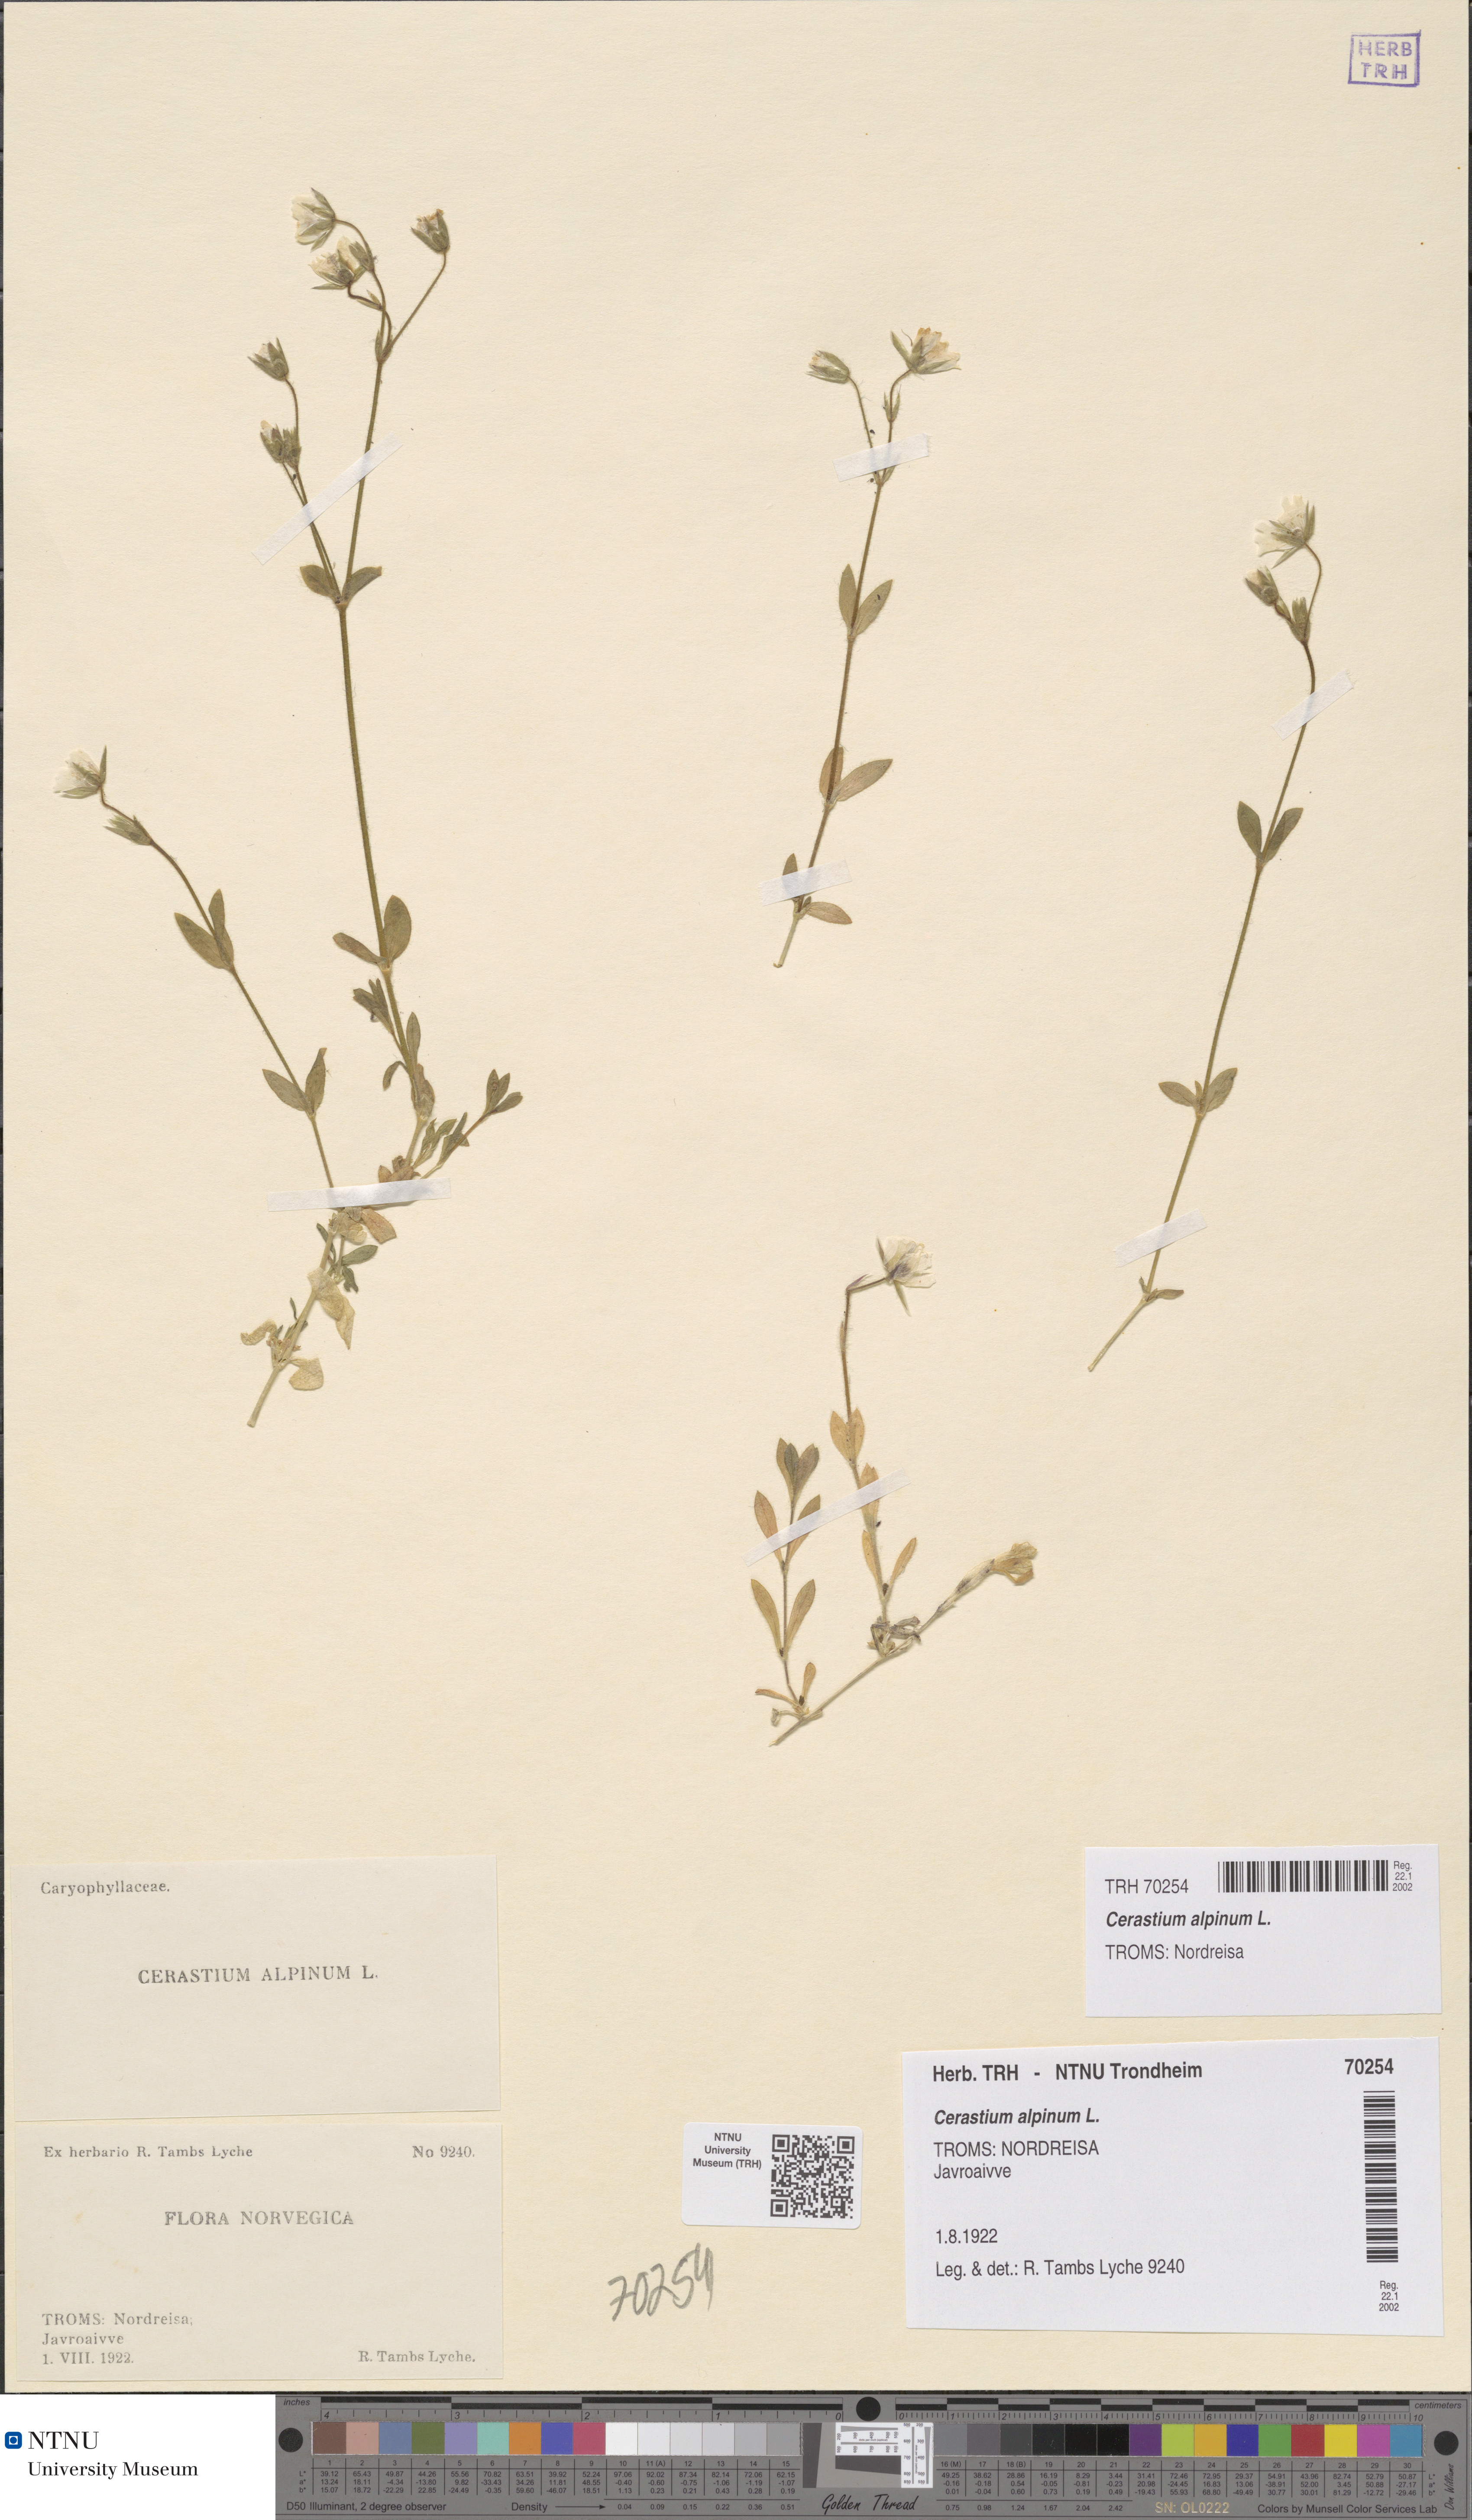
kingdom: Plantae
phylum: Tracheophyta
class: Magnoliopsida
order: Caryophyllales
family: Caryophyllaceae
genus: Cerastium
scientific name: Cerastium alpinum
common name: Alpine mouse-ear
